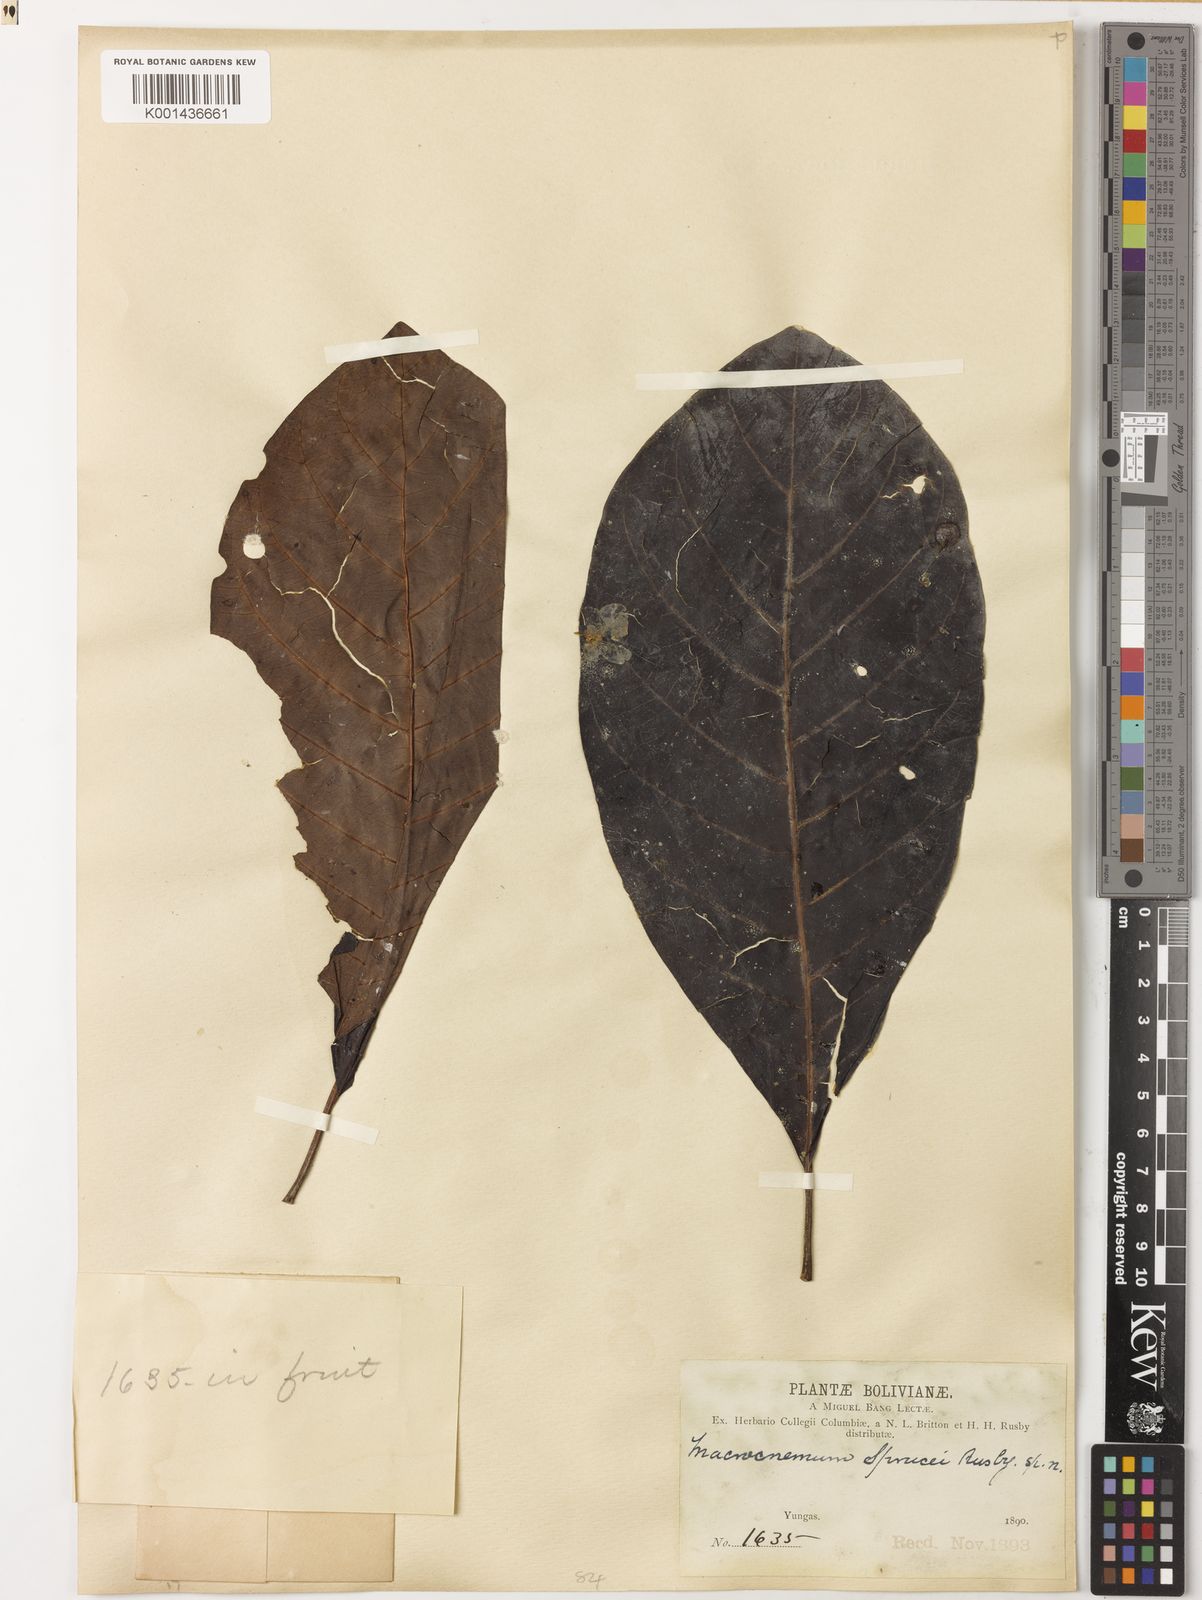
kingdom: Plantae
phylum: Tracheophyta
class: Magnoliopsida
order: Gentianales
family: Rubiaceae
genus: Macrocnemum
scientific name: Macrocnemum roseum
